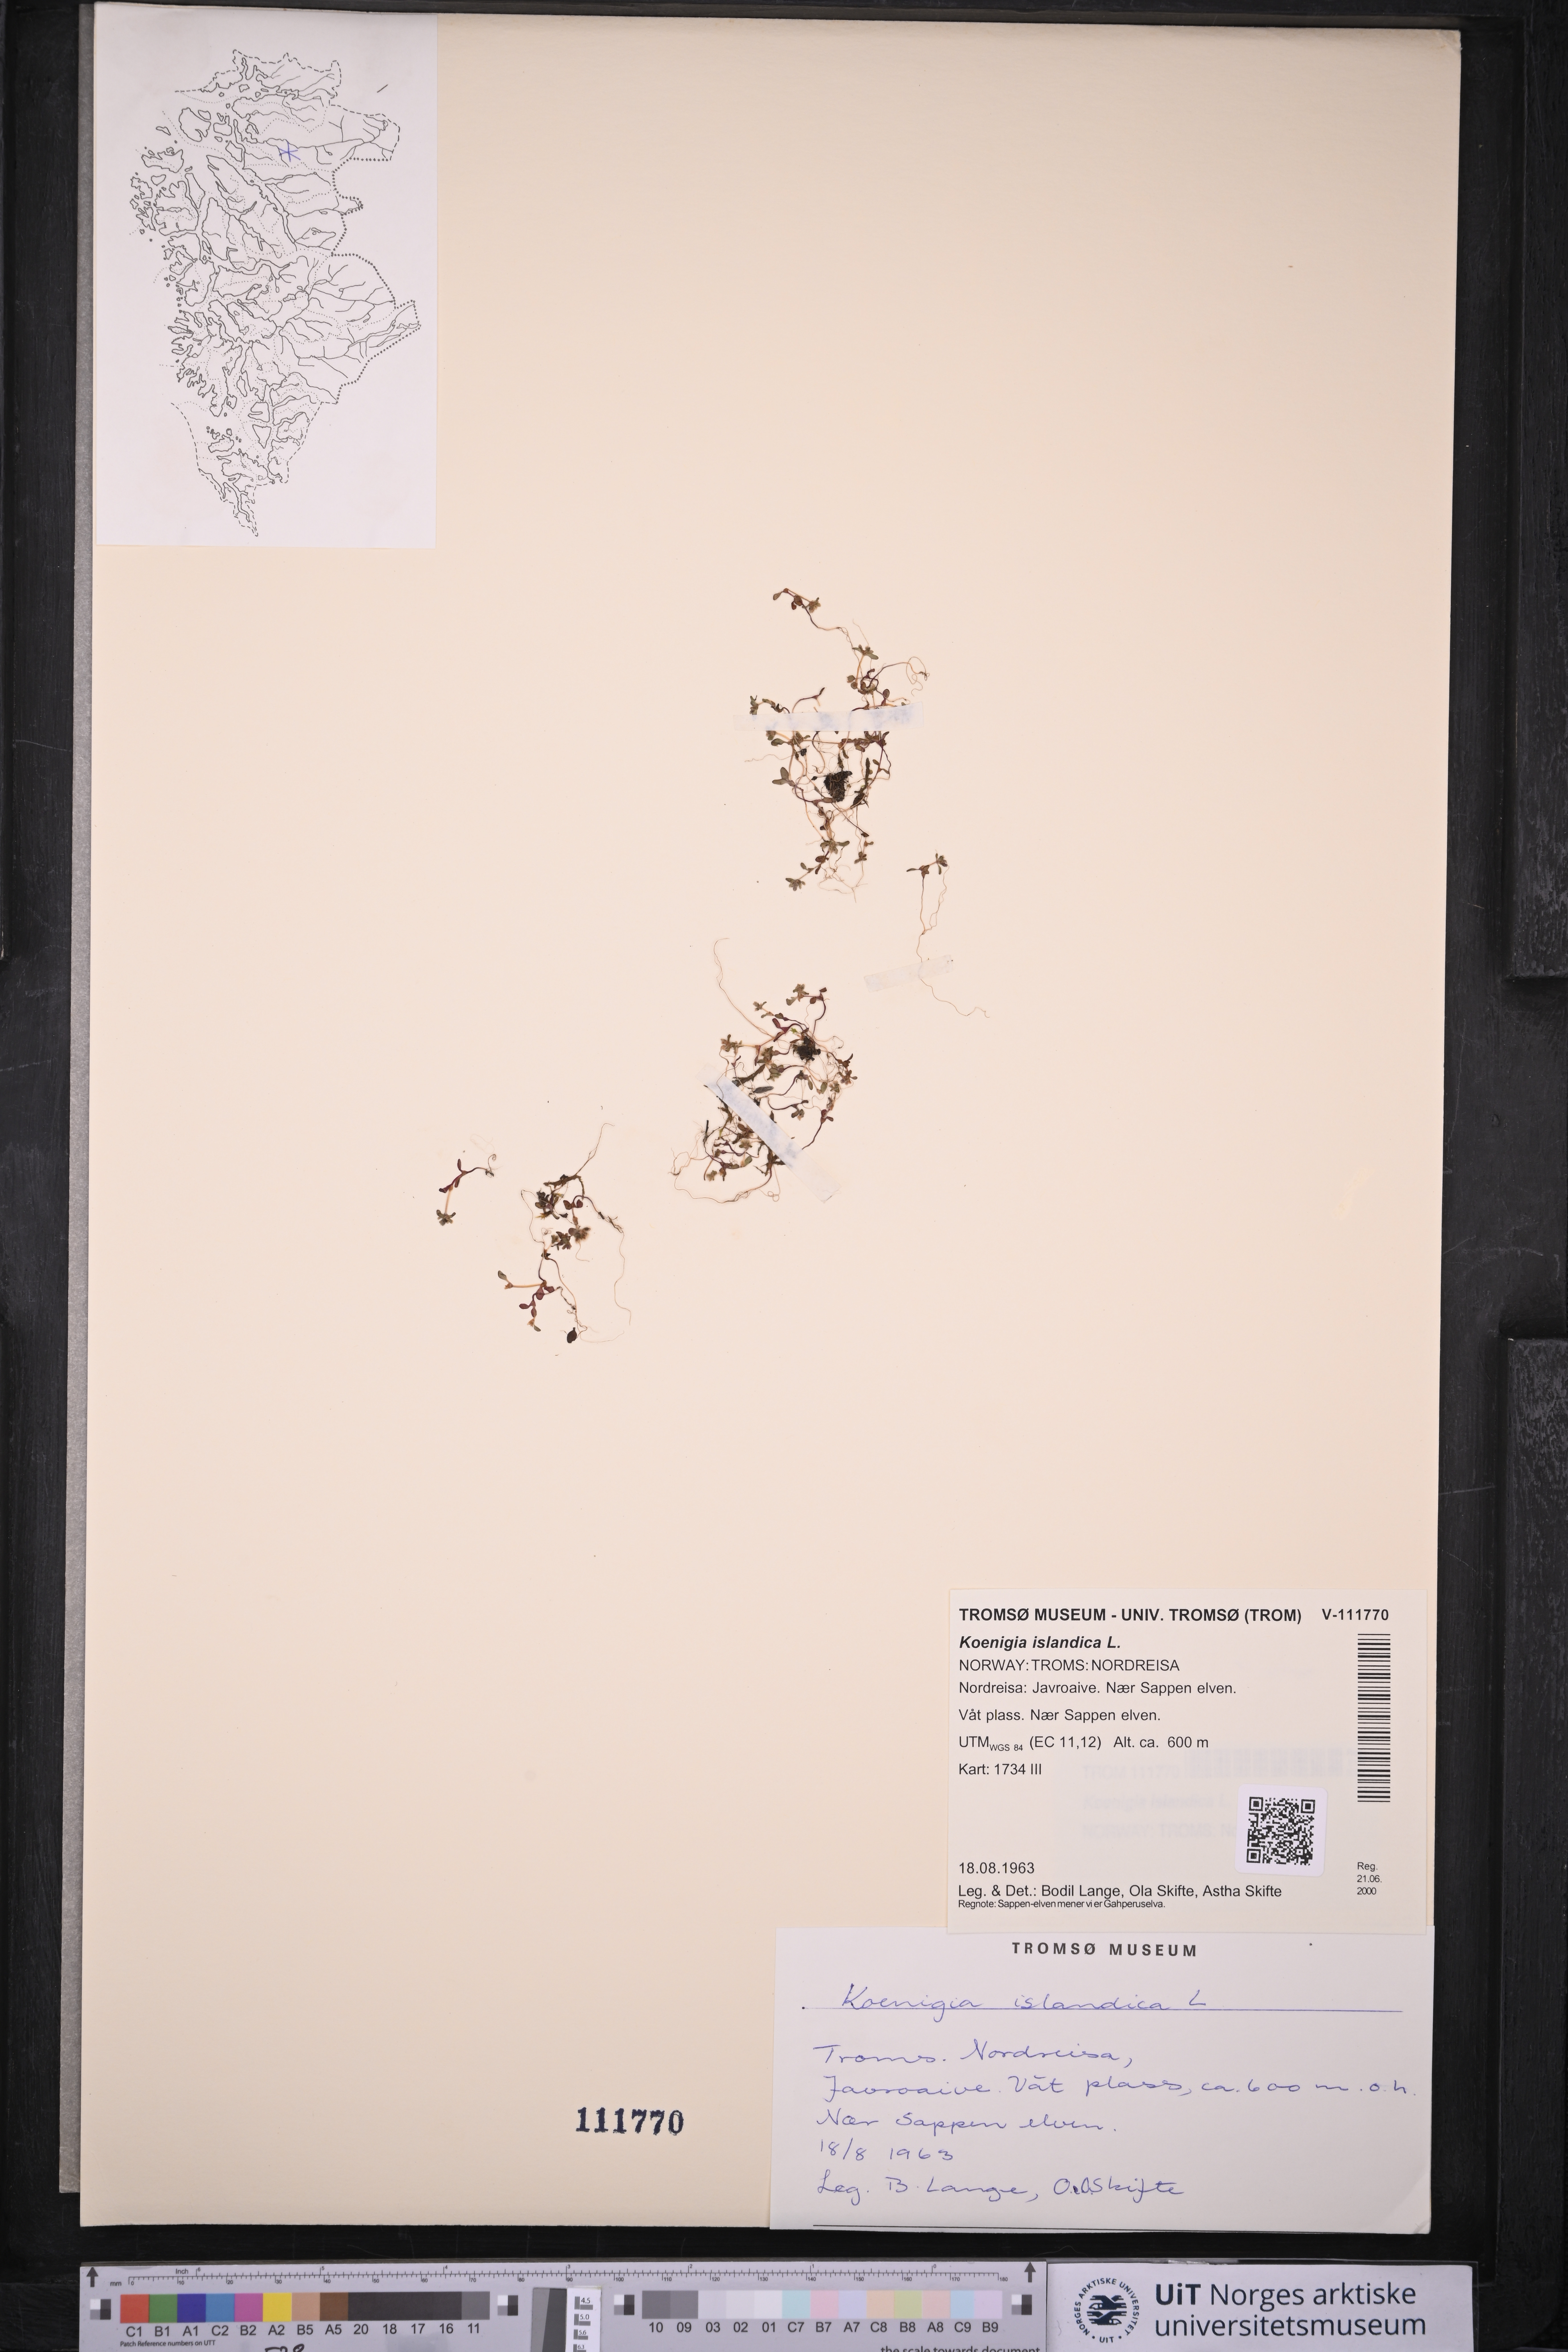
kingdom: Plantae
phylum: Tracheophyta
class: Magnoliopsida
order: Caryophyllales
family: Polygonaceae
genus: Koenigia
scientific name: Koenigia islandica
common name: Iceland-purslane
